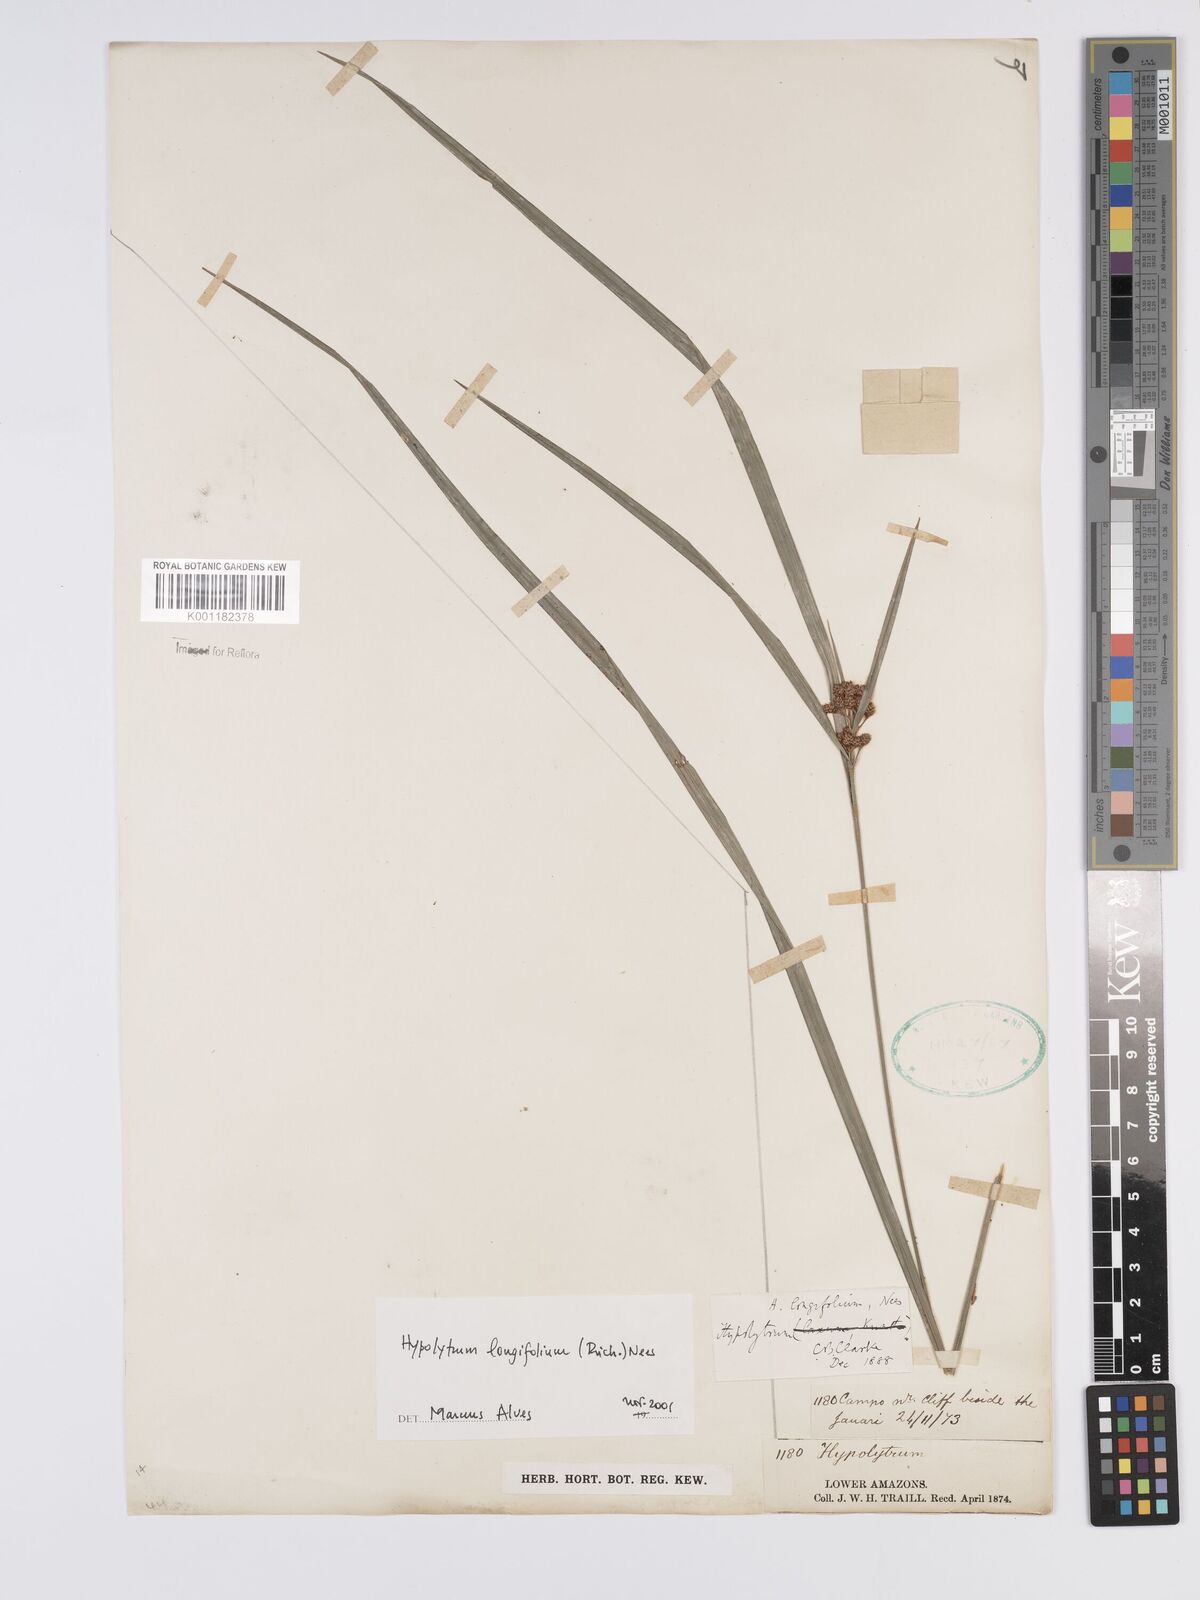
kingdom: Plantae
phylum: Tracheophyta
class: Liliopsida
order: Poales
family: Cyperaceae
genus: Hypolytrum
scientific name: Hypolytrum longifolium
